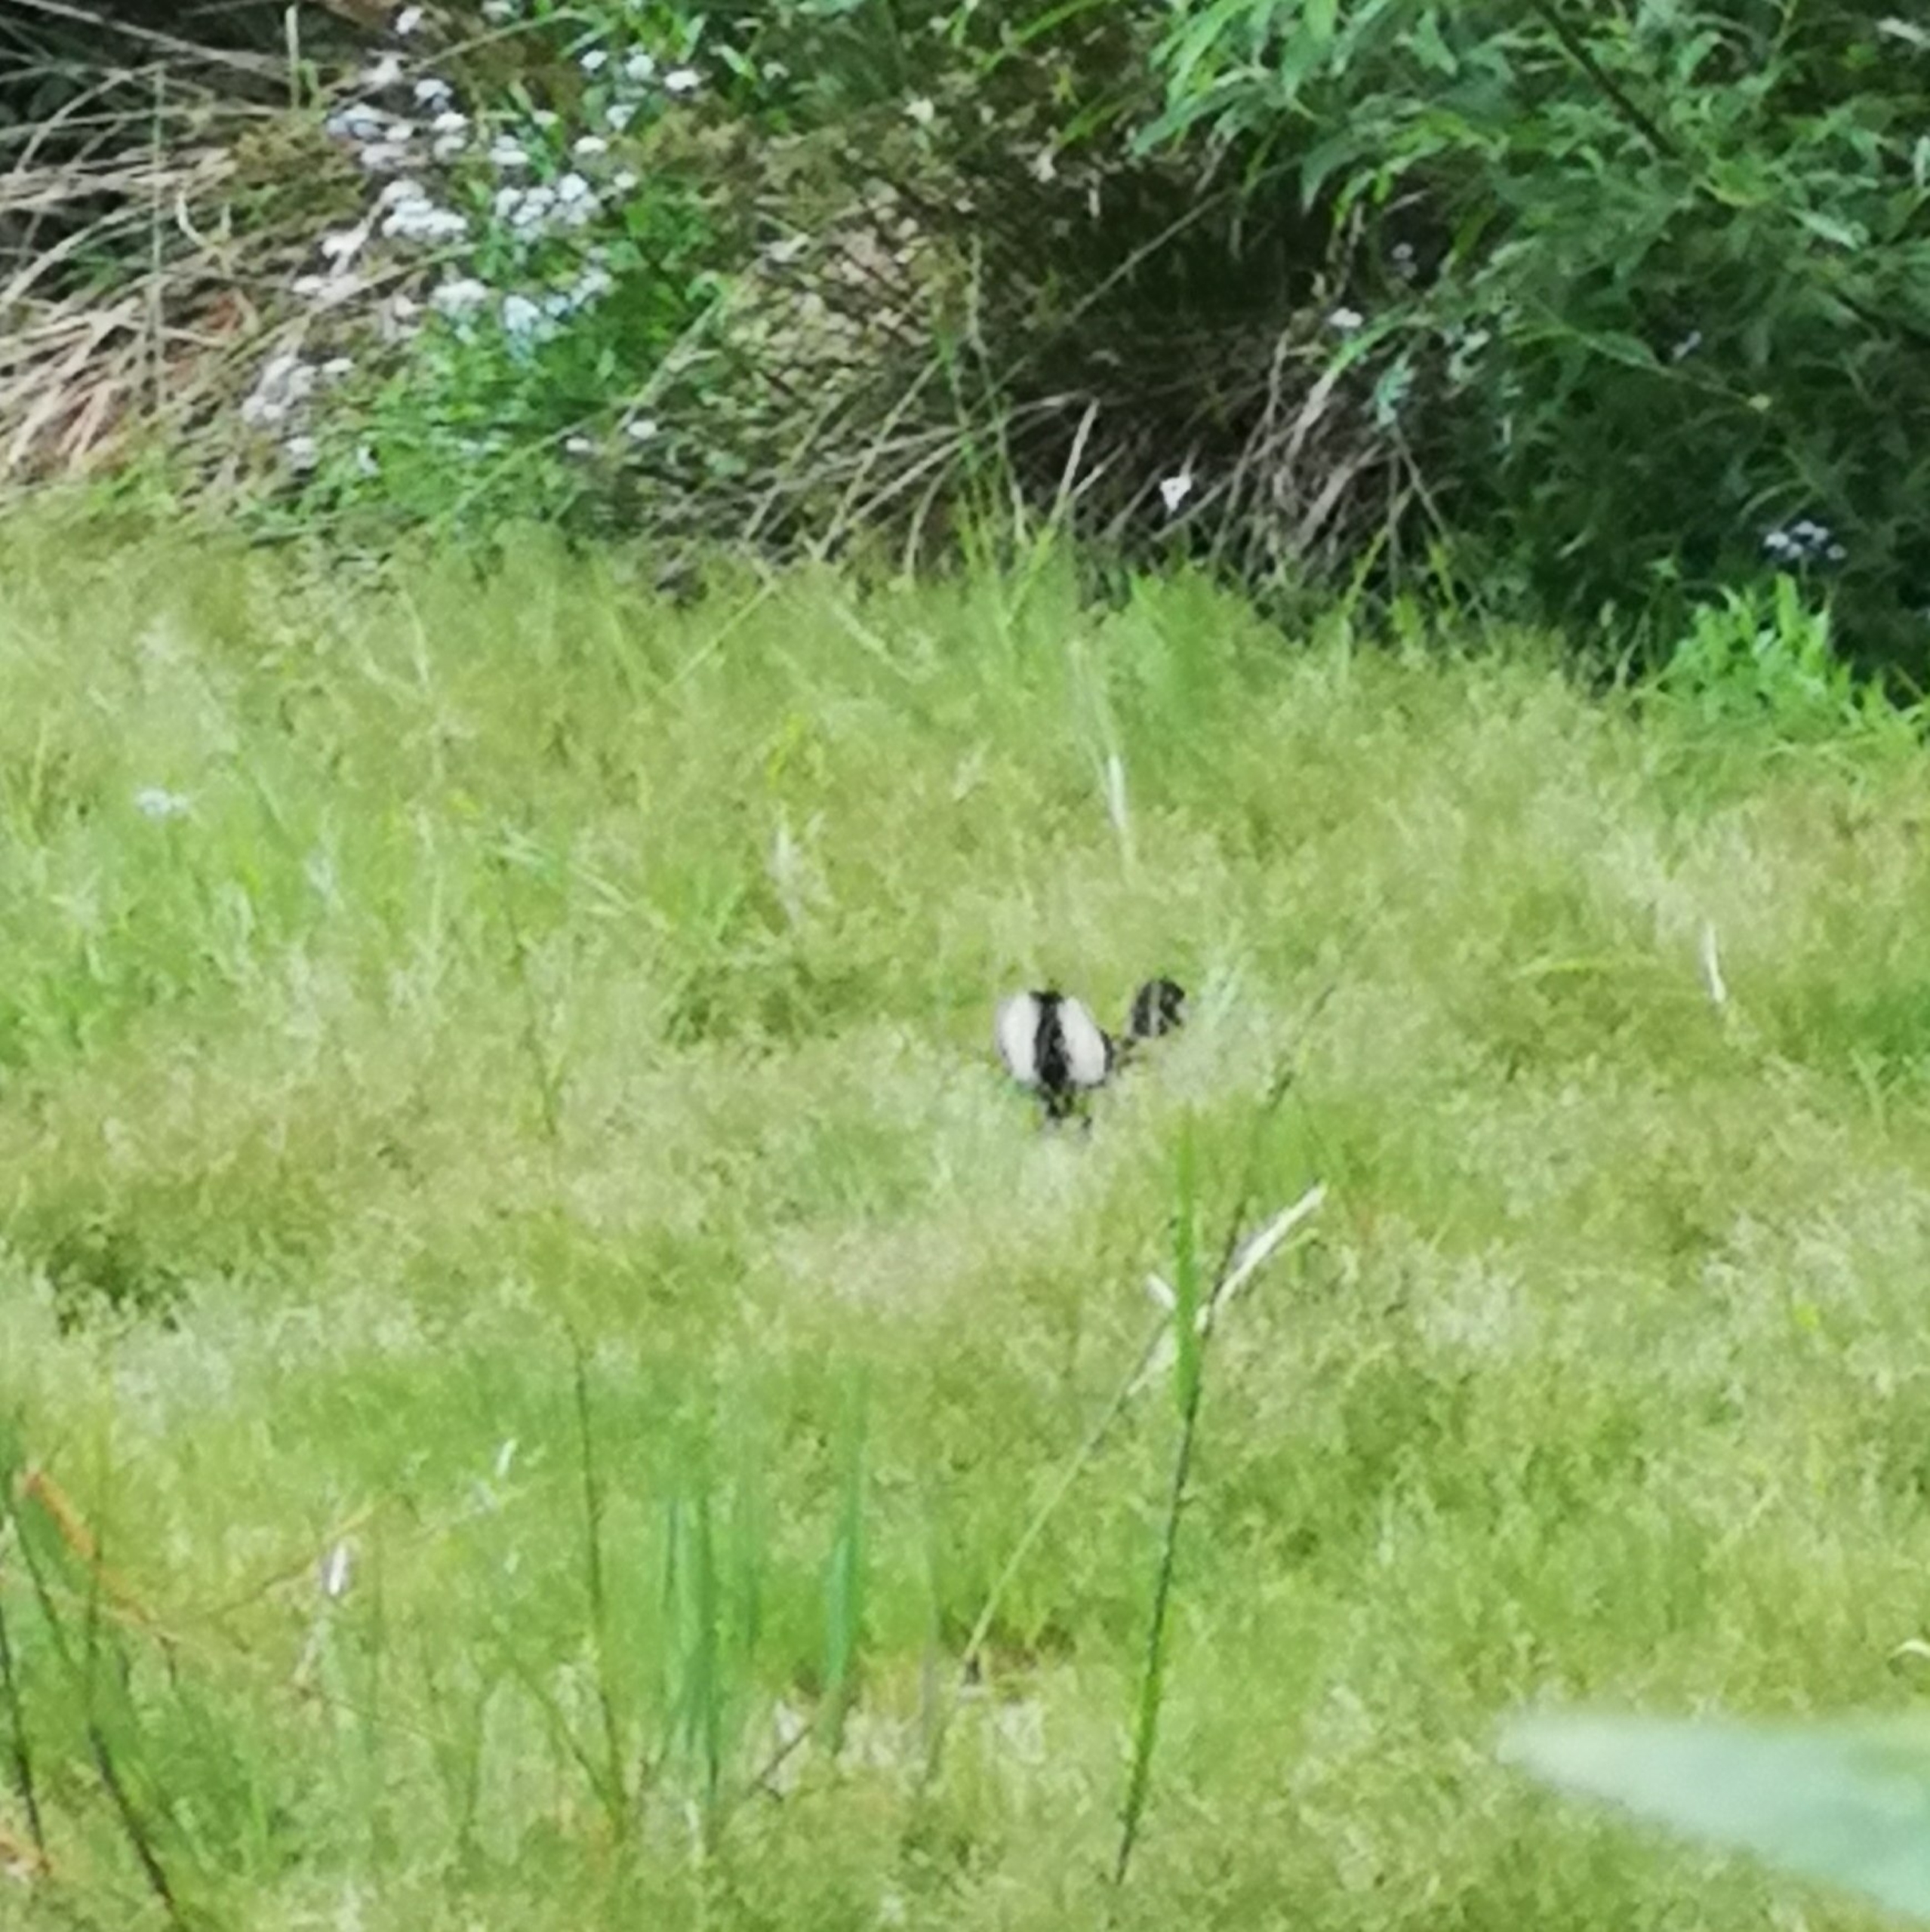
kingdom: Animalia
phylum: Chordata
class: Aves
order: Gruiformes
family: Rallidae
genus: Gallinula
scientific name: Gallinula chloropus
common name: Grønbenet rørhøne
